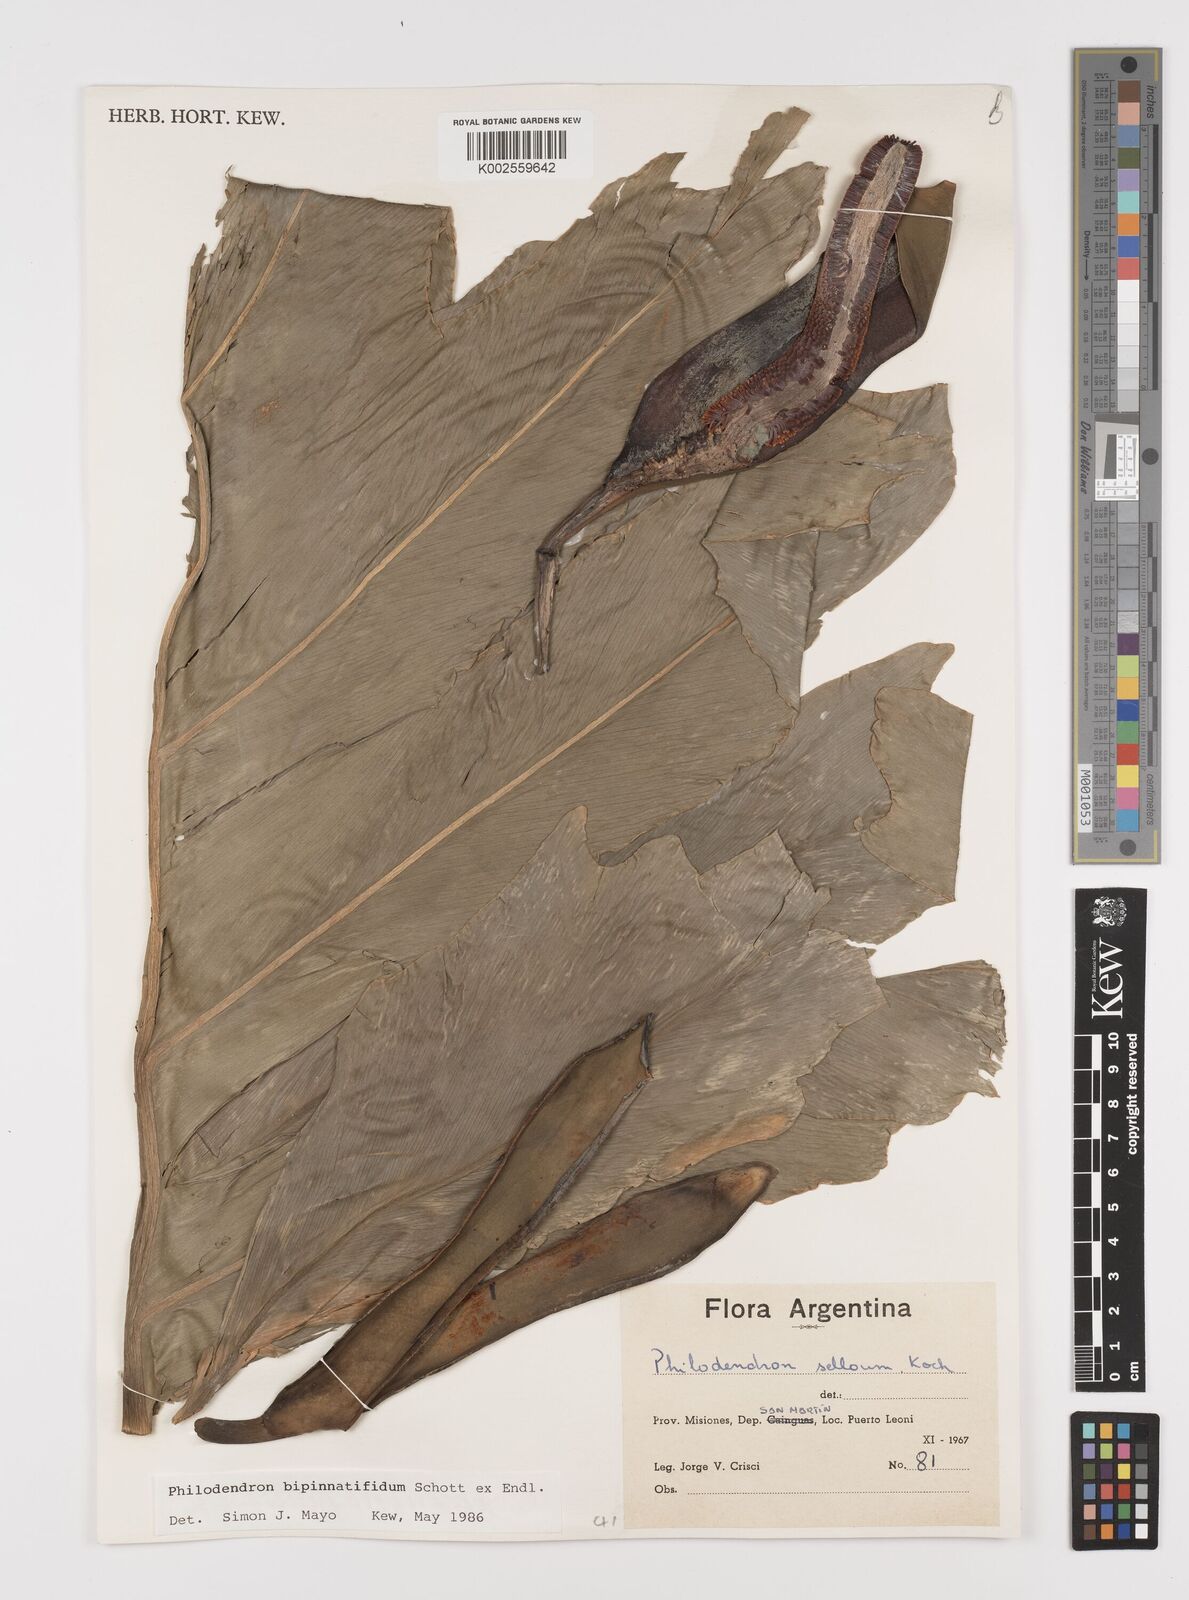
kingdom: Plantae
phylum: Tracheophyta
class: Liliopsida
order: Alismatales
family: Araceae
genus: Philodendron
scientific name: Philodendron bipennifolium
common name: Fiddle-leaf philodendron
